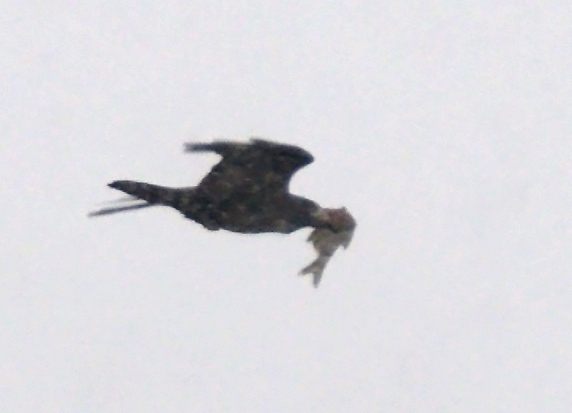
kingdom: Animalia
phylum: Chordata
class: Aves
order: Accipitriformes
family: Accipitridae
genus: Haliaeetus
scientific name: Haliaeetus albicilla
